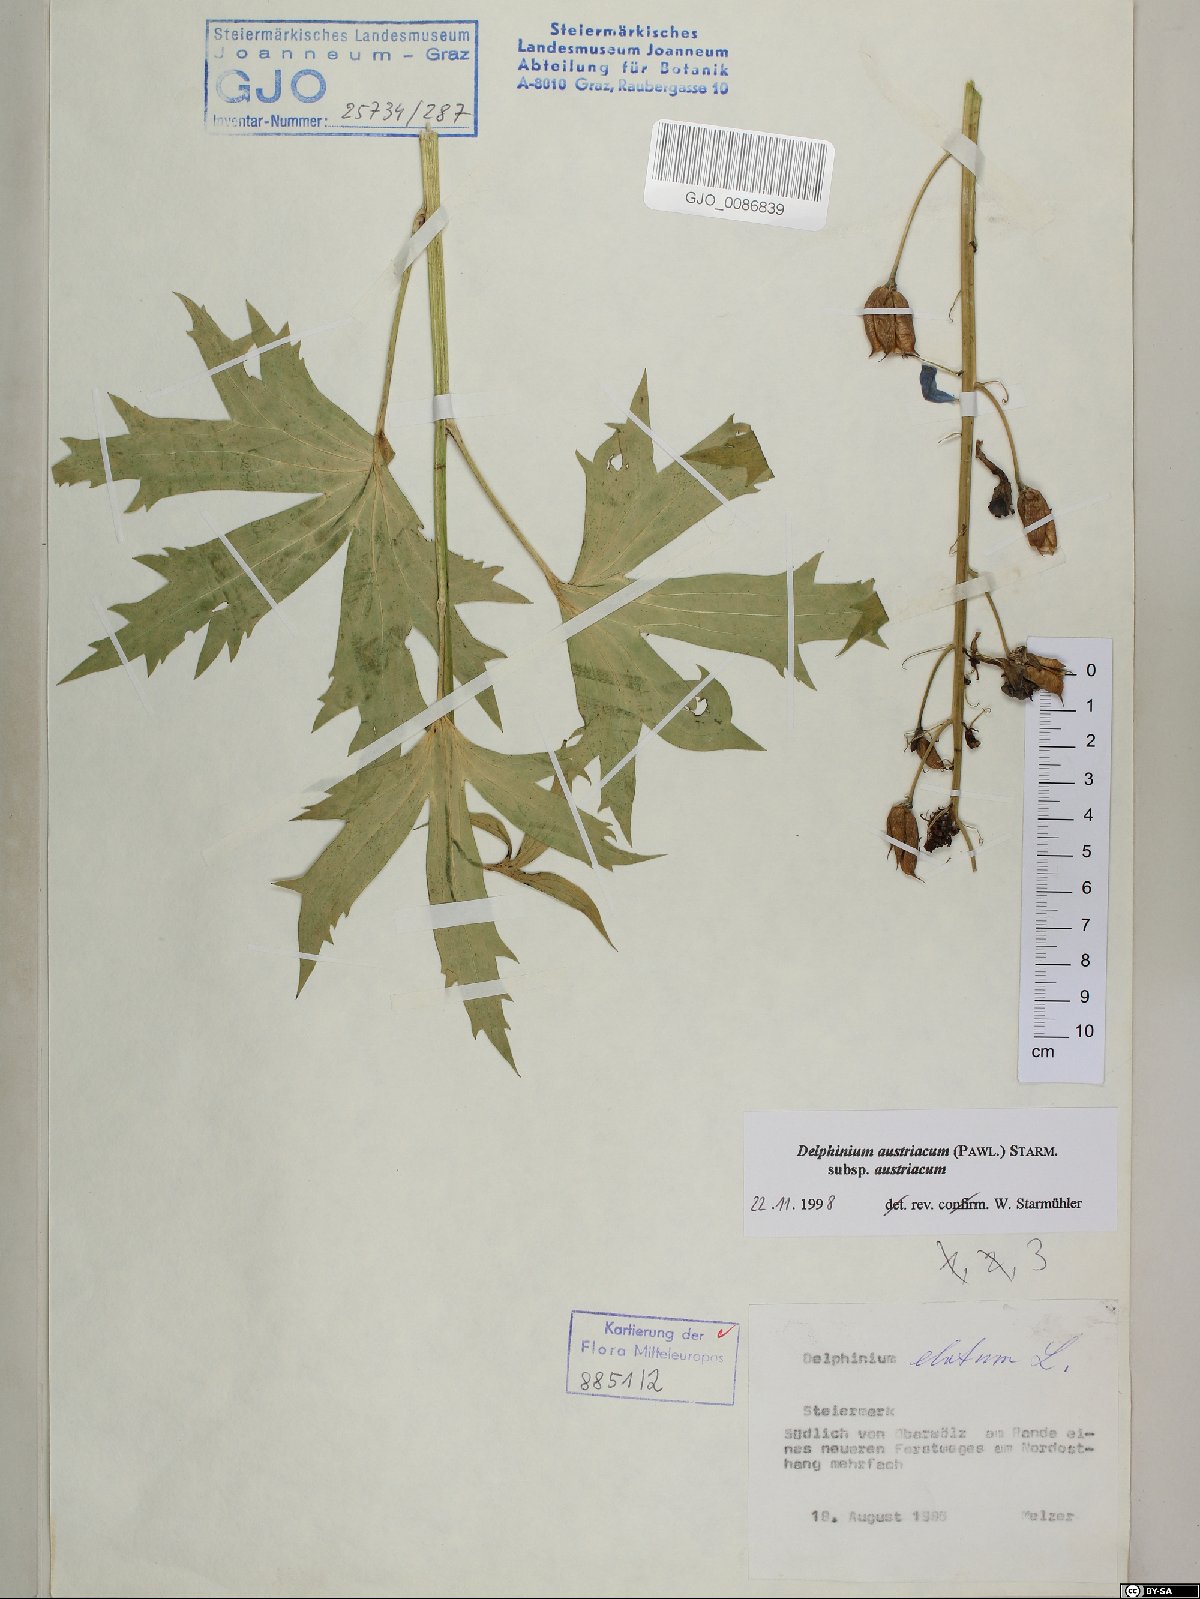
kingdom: Plantae
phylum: Tracheophyta
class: Magnoliopsida
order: Ranunculales
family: Ranunculaceae
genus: Delphinium
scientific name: Delphinium austriacum
